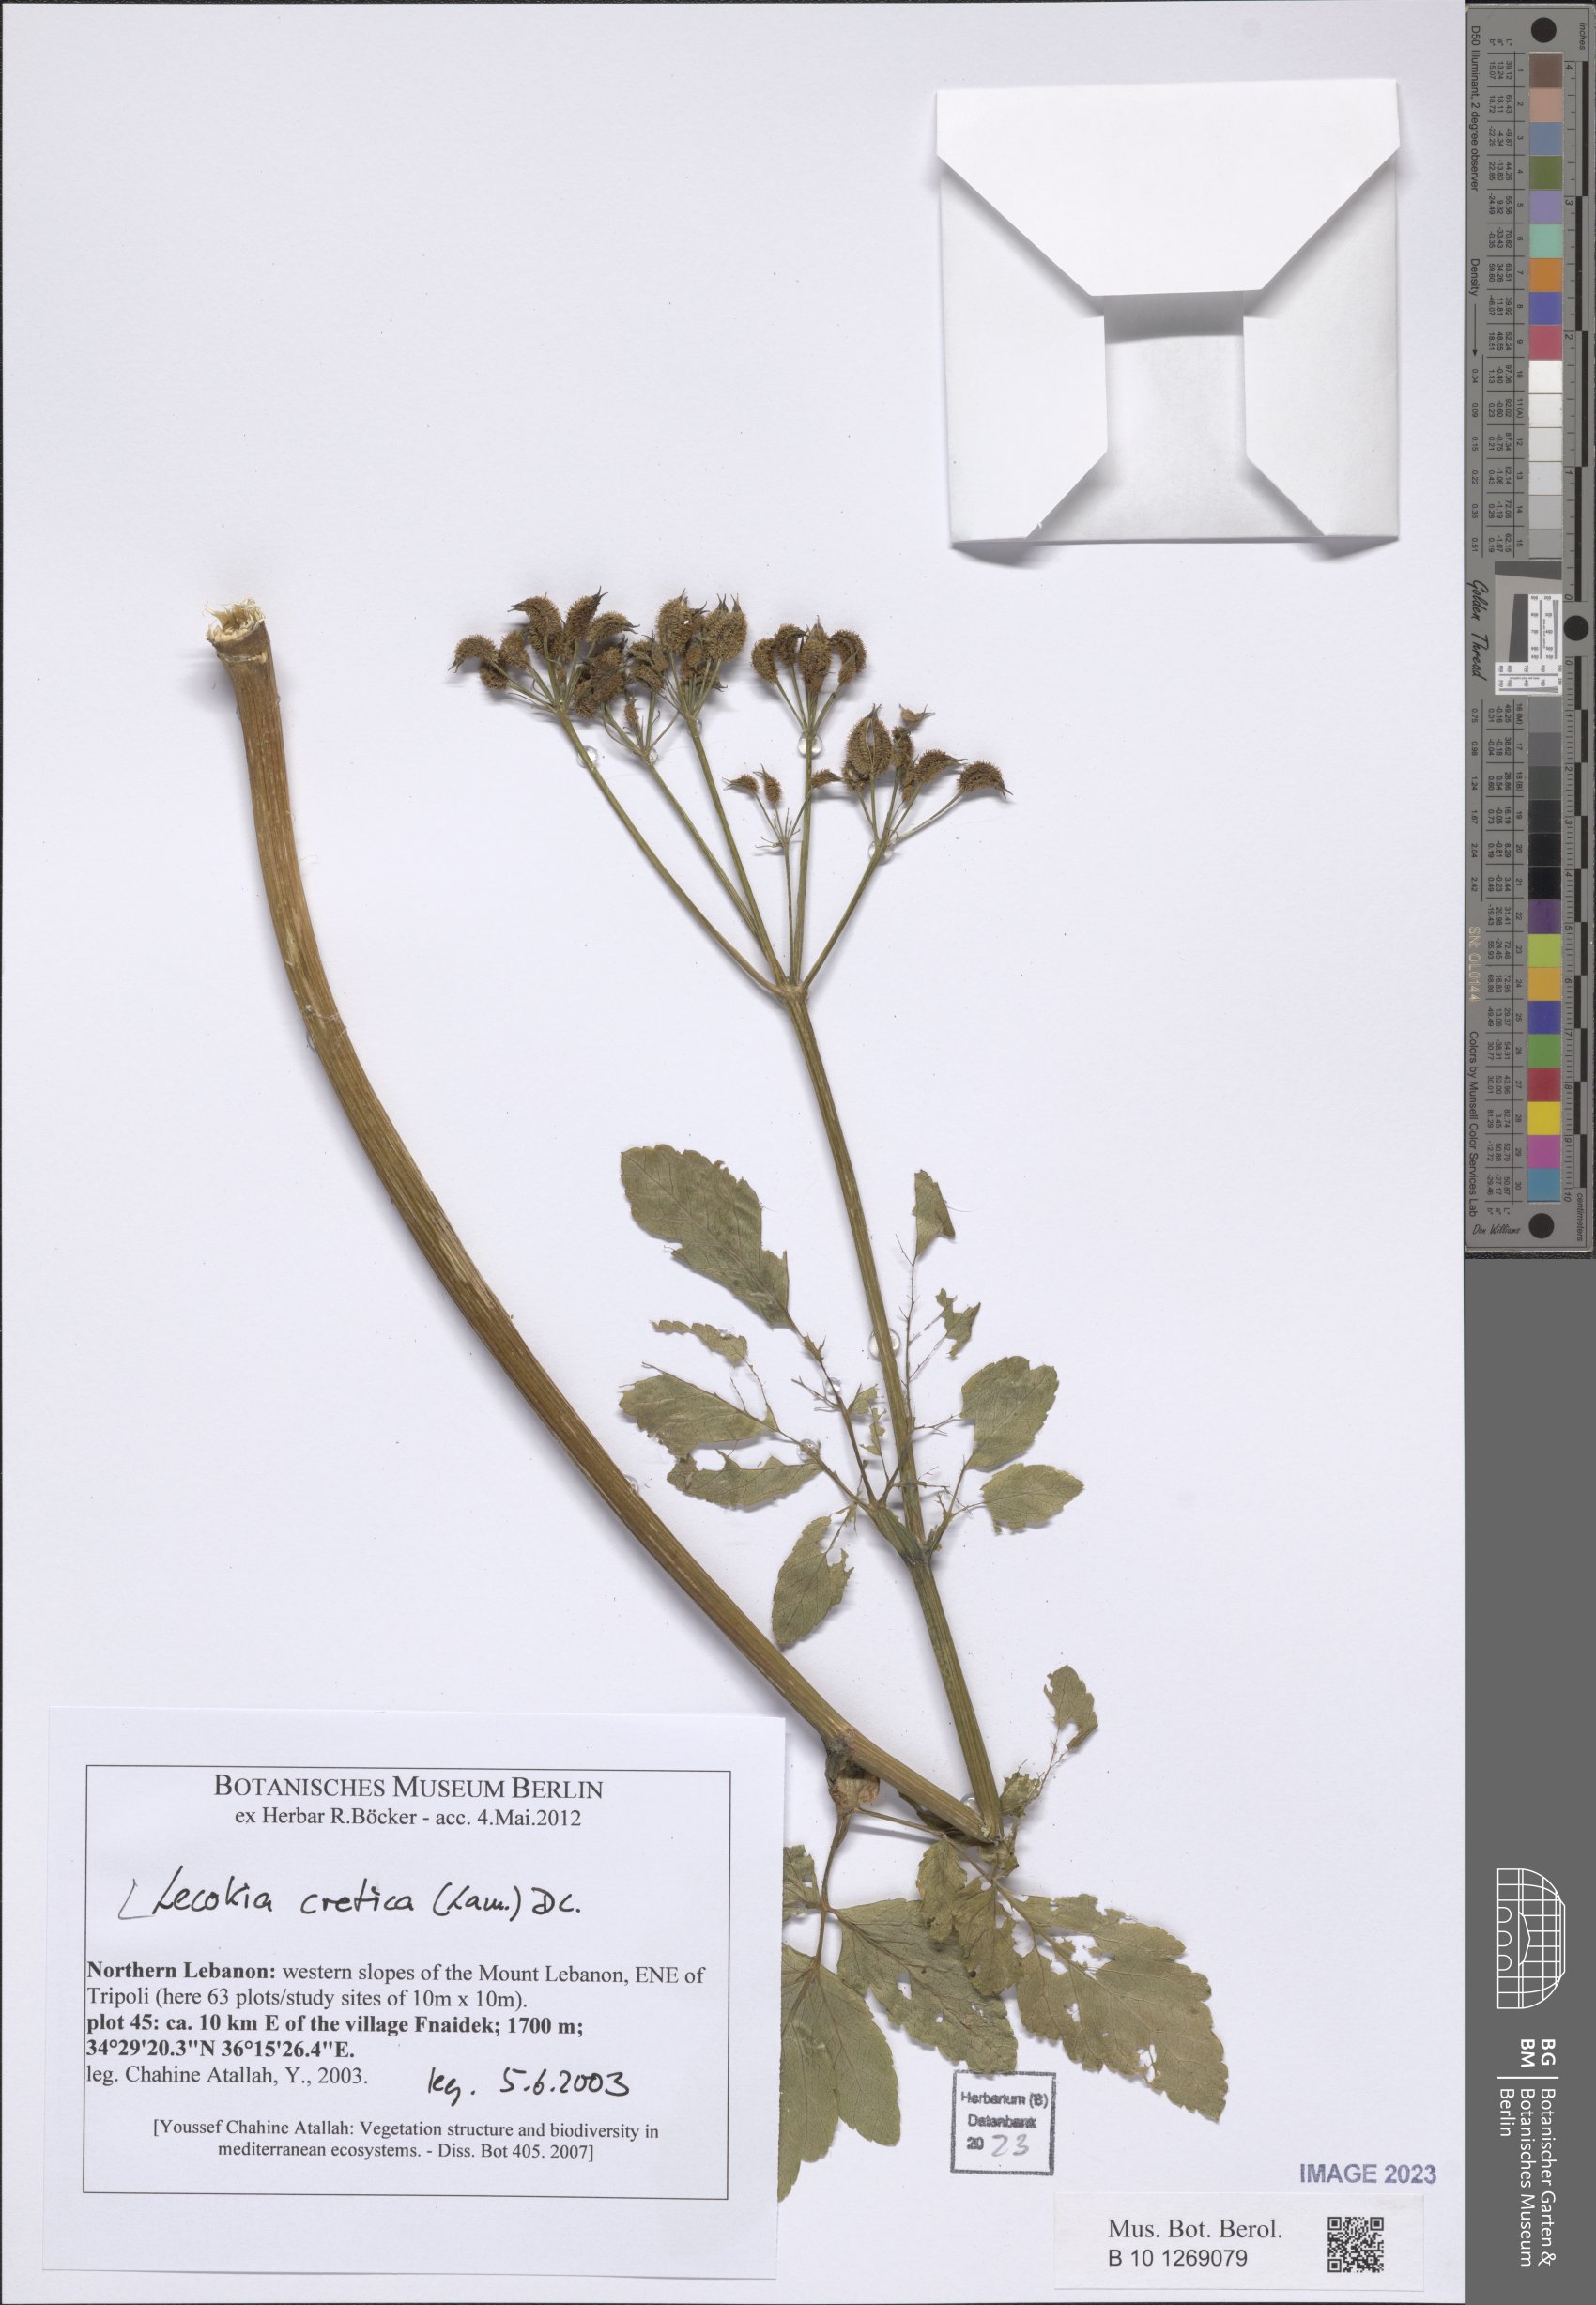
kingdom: Plantae
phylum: Tracheophyta
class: Magnoliopsida
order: Apiales
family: Apiaceae
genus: Lecokia
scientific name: Lecokia cretica
